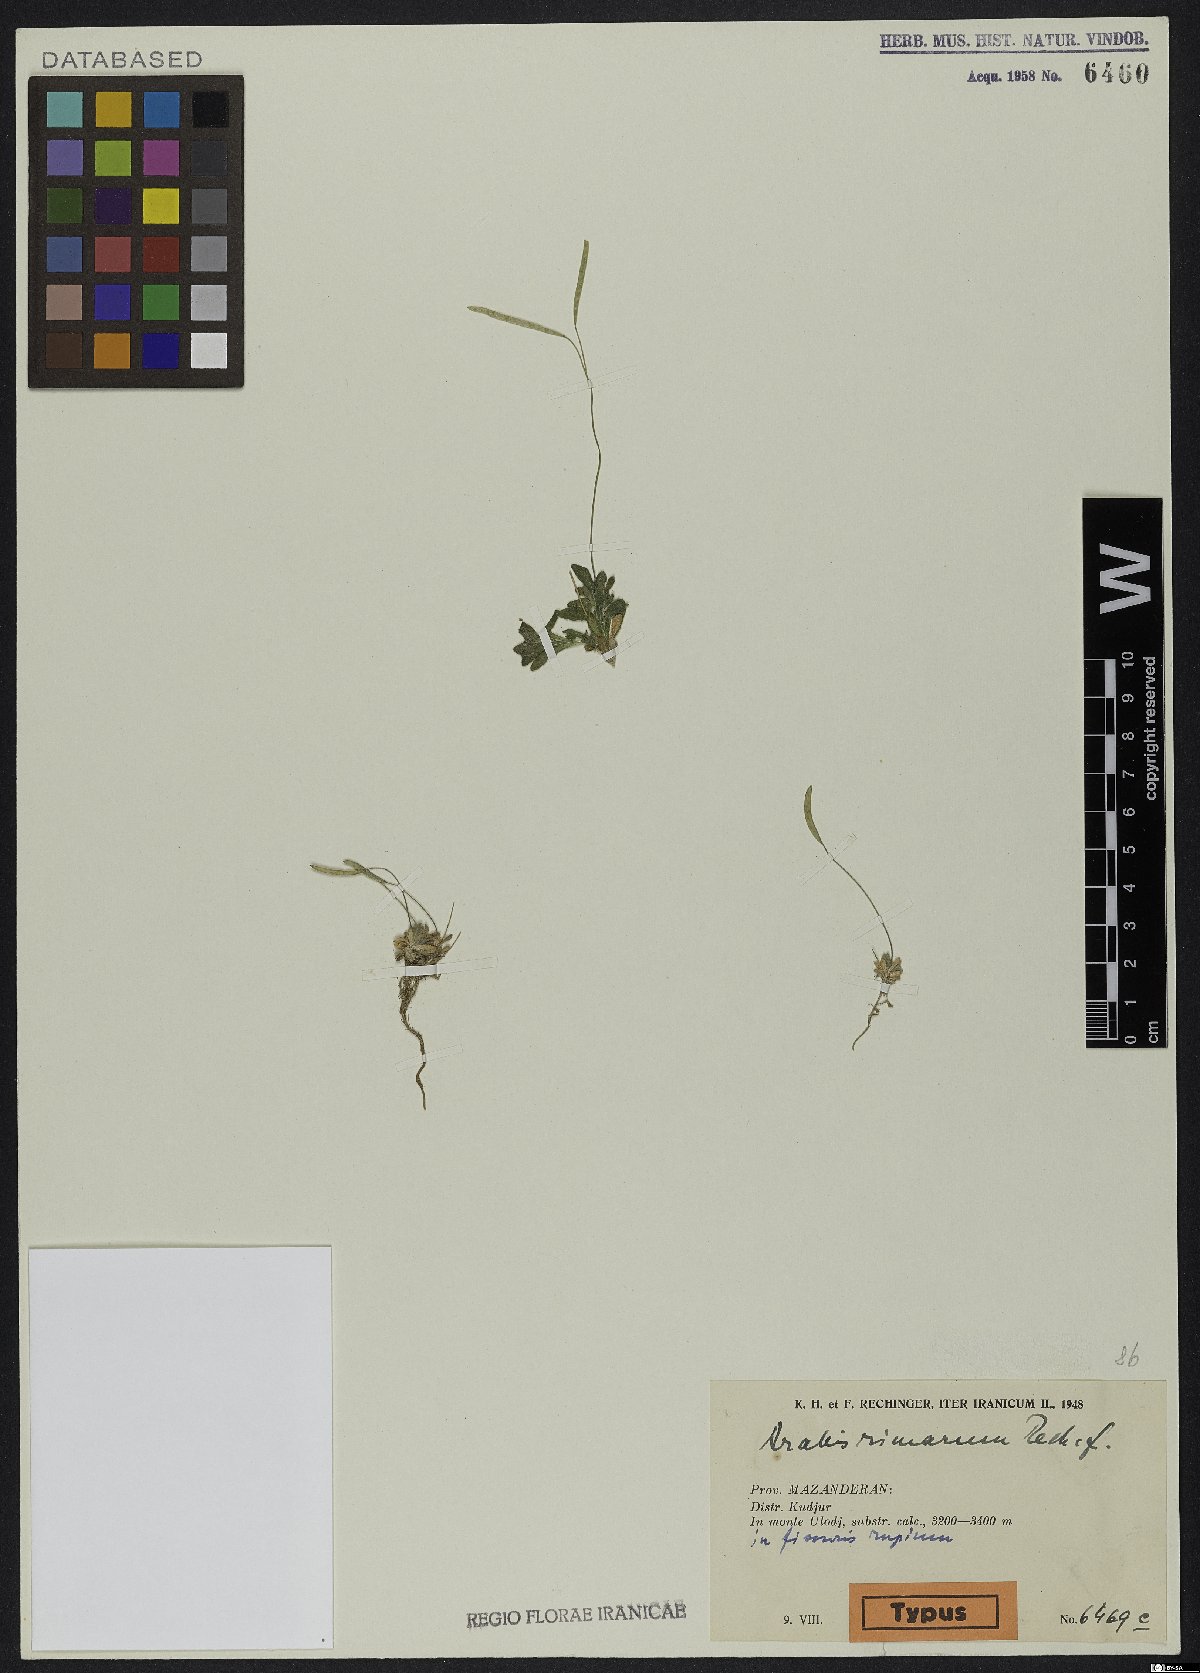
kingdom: Plantae
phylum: Tracheophyta
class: Magnoliopsida
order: Brassicales
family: Brassicaceae
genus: Draba
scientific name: Draba aucheri
